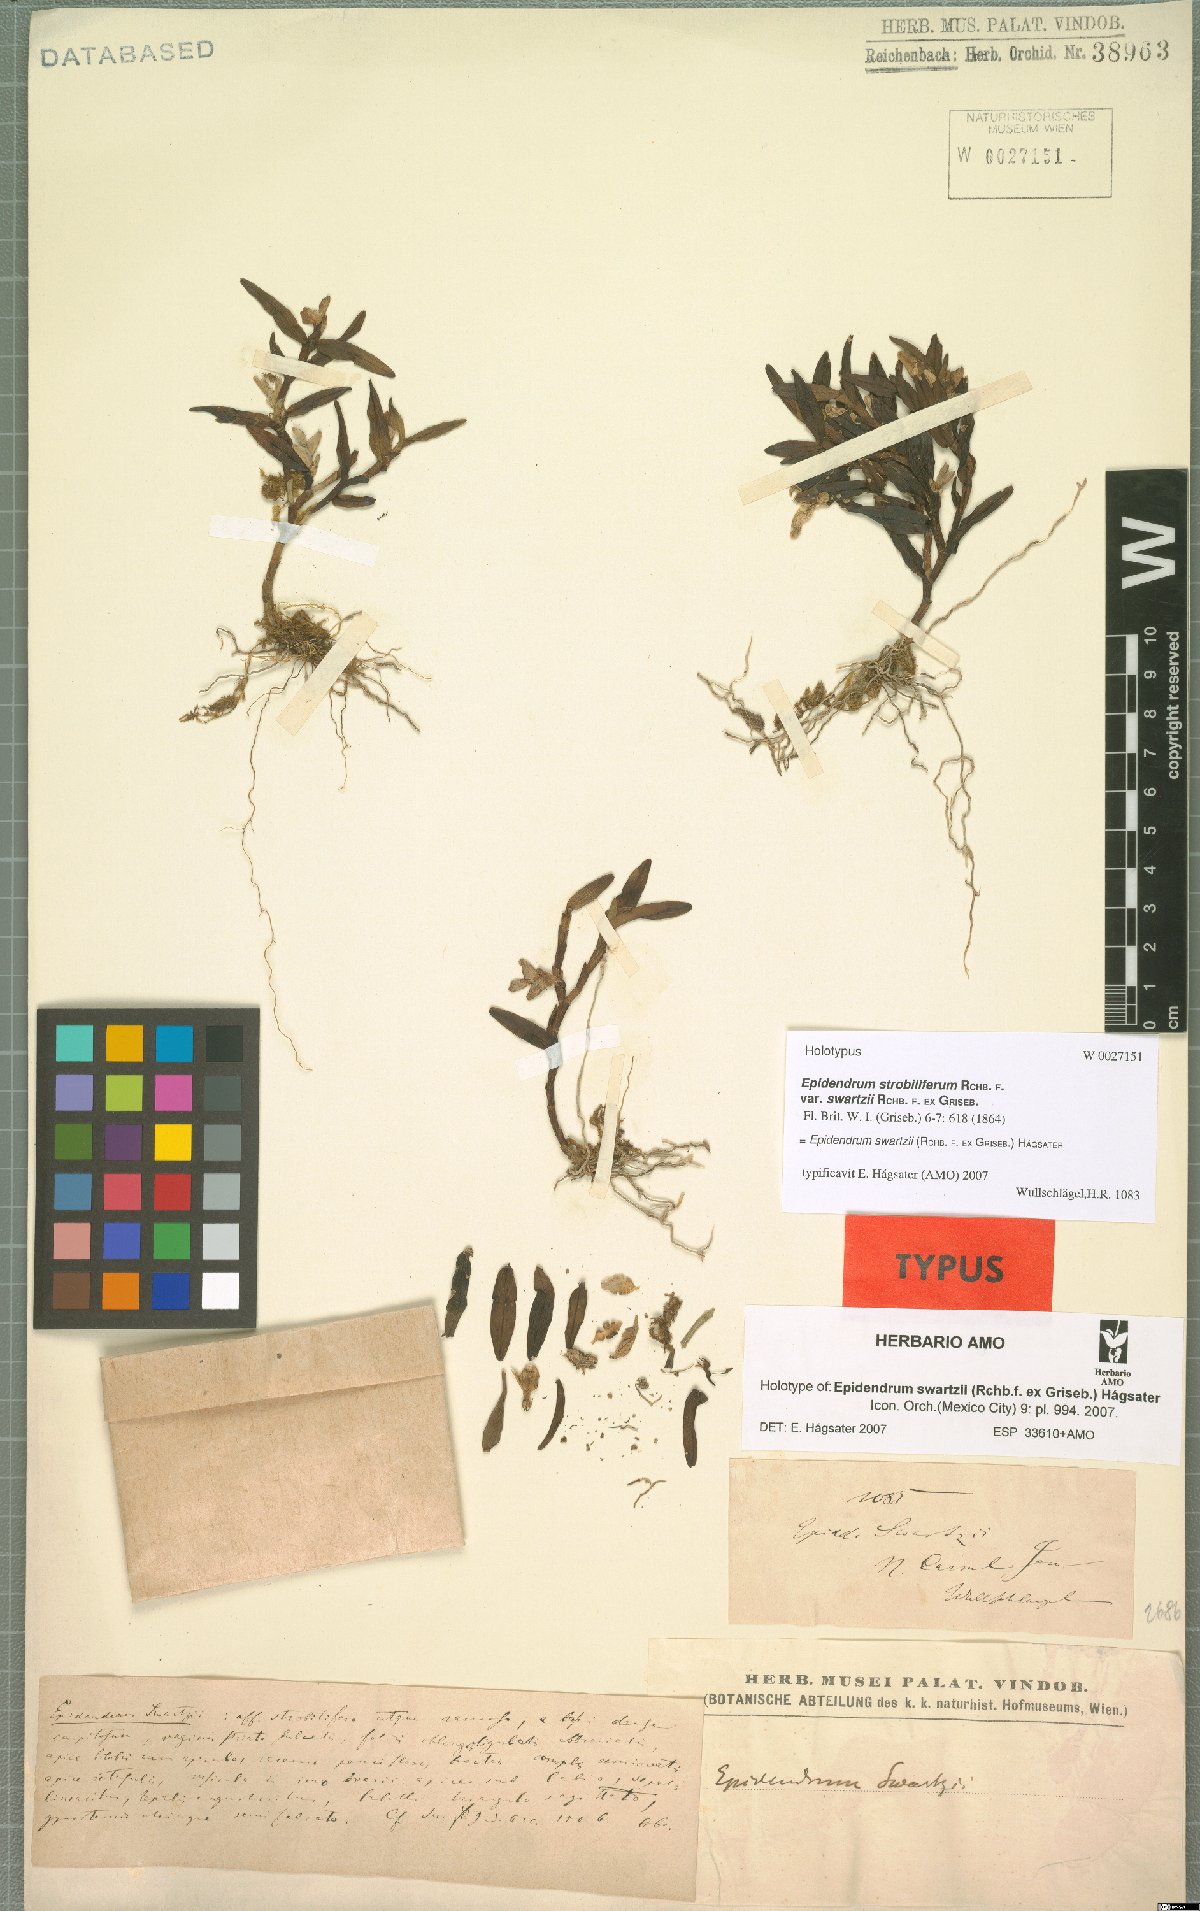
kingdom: Plantae
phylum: Tracheophyta
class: Liliopsida
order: Asparagales
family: Orchidaceae
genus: Epidendrum
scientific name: Epidendrum swartzii
